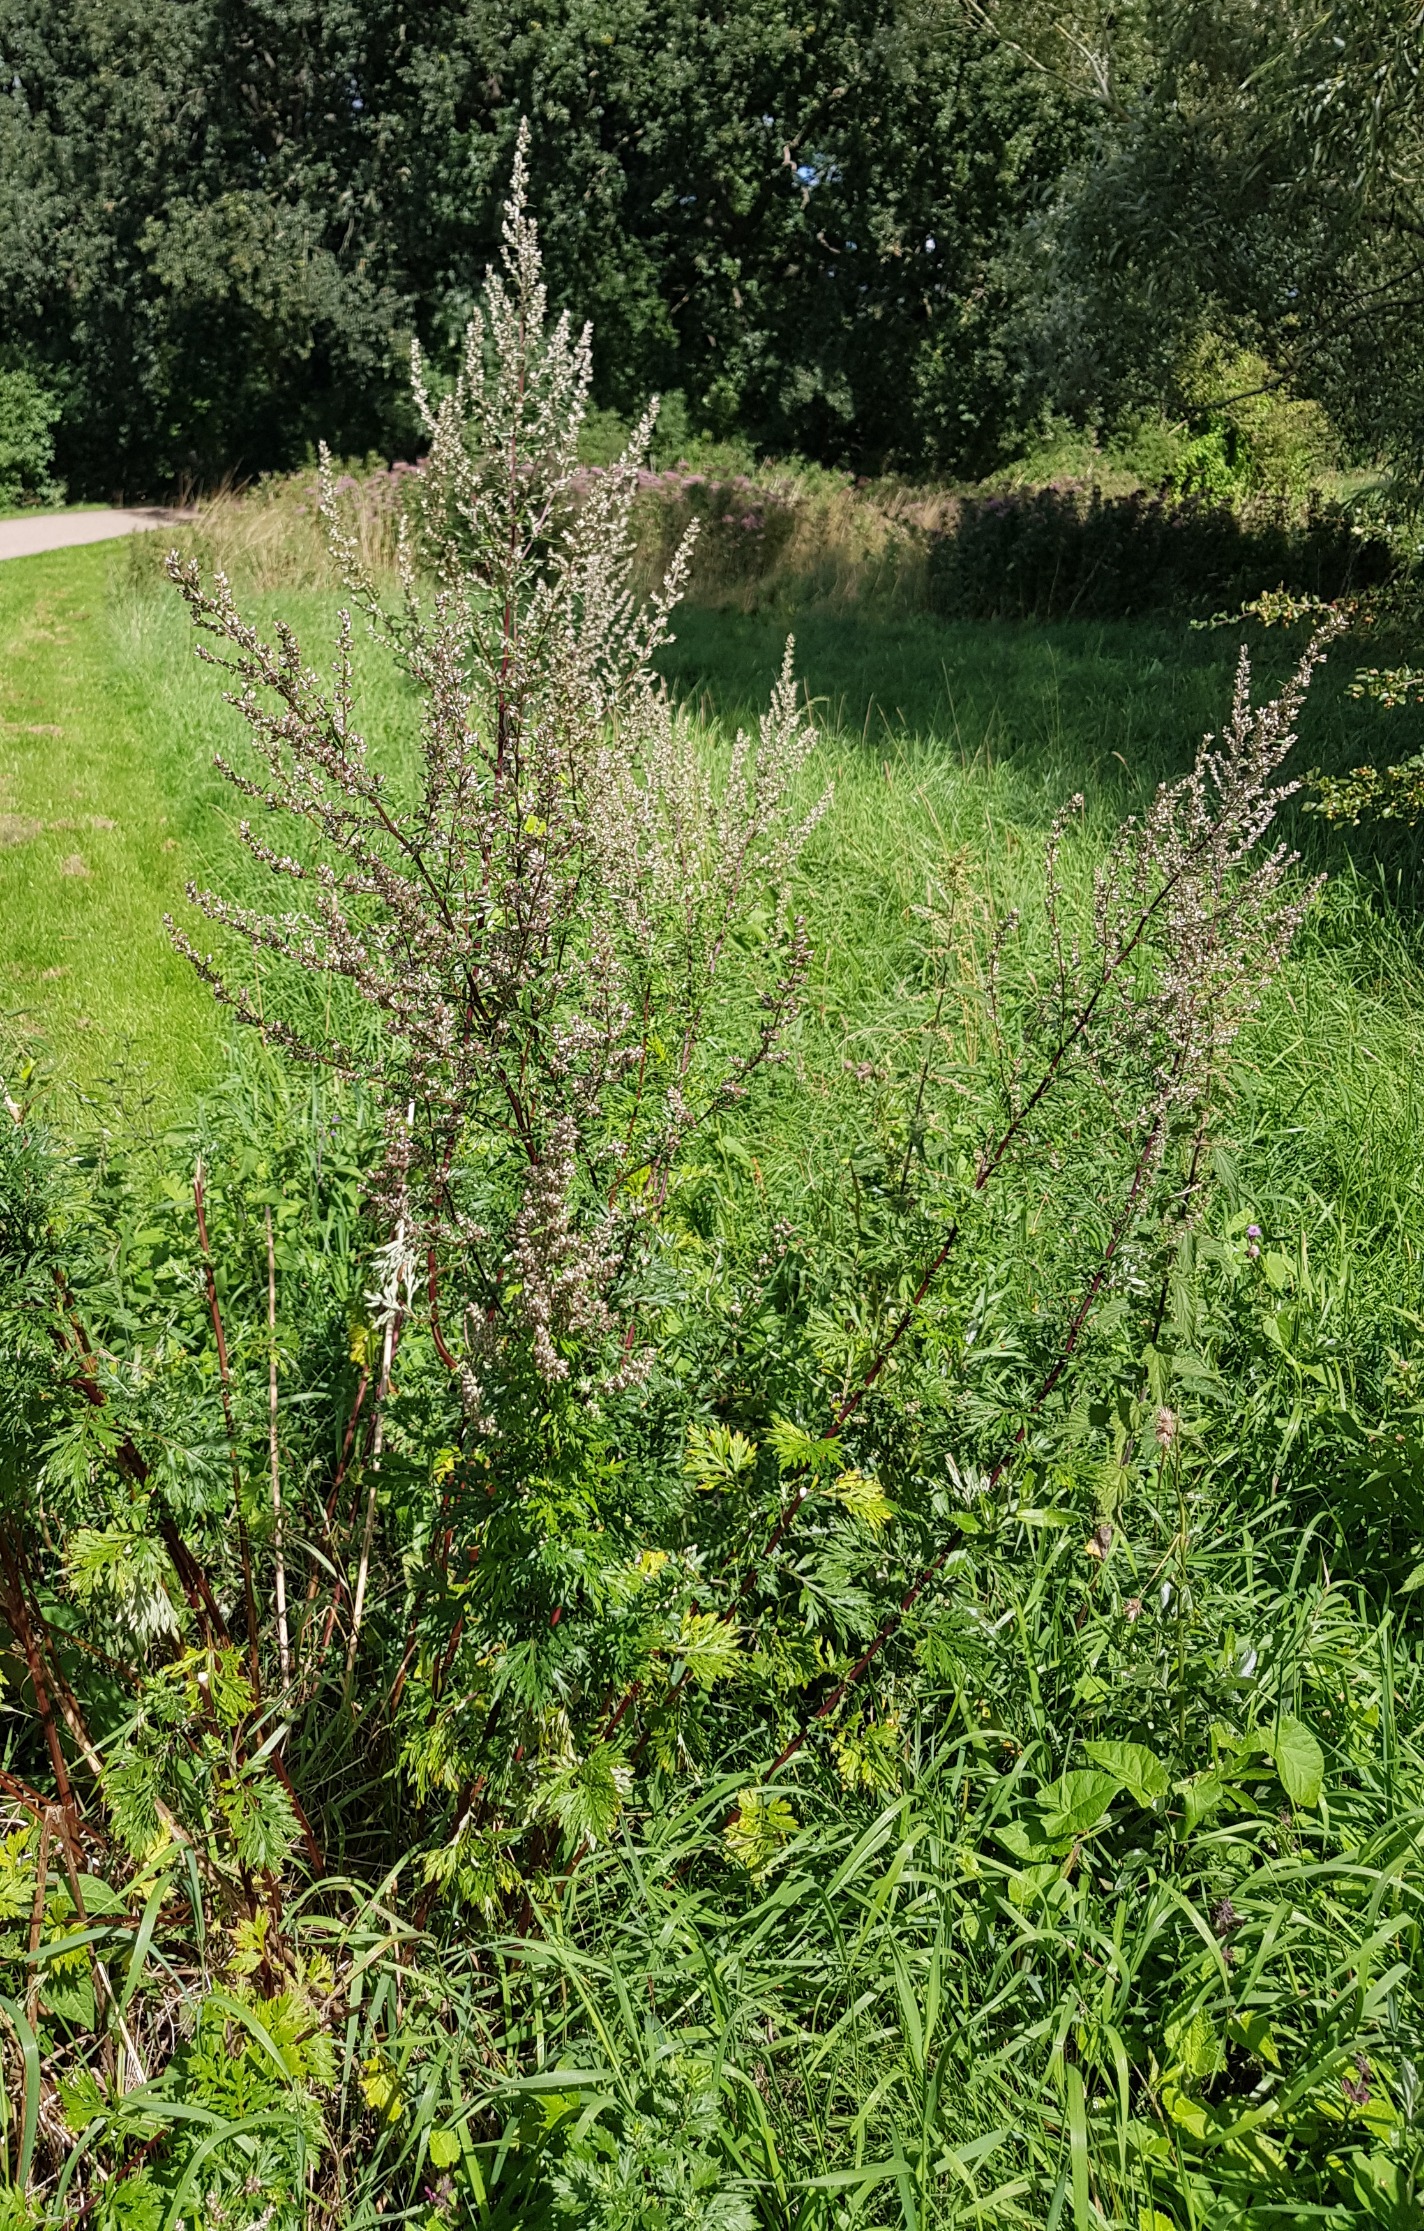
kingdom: Plantae
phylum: Tracheophyta
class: Magnoliopsida
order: Asterales
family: Asteraceae
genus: Artemisia
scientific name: Artemisia vulgaris
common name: Grå-bynke
